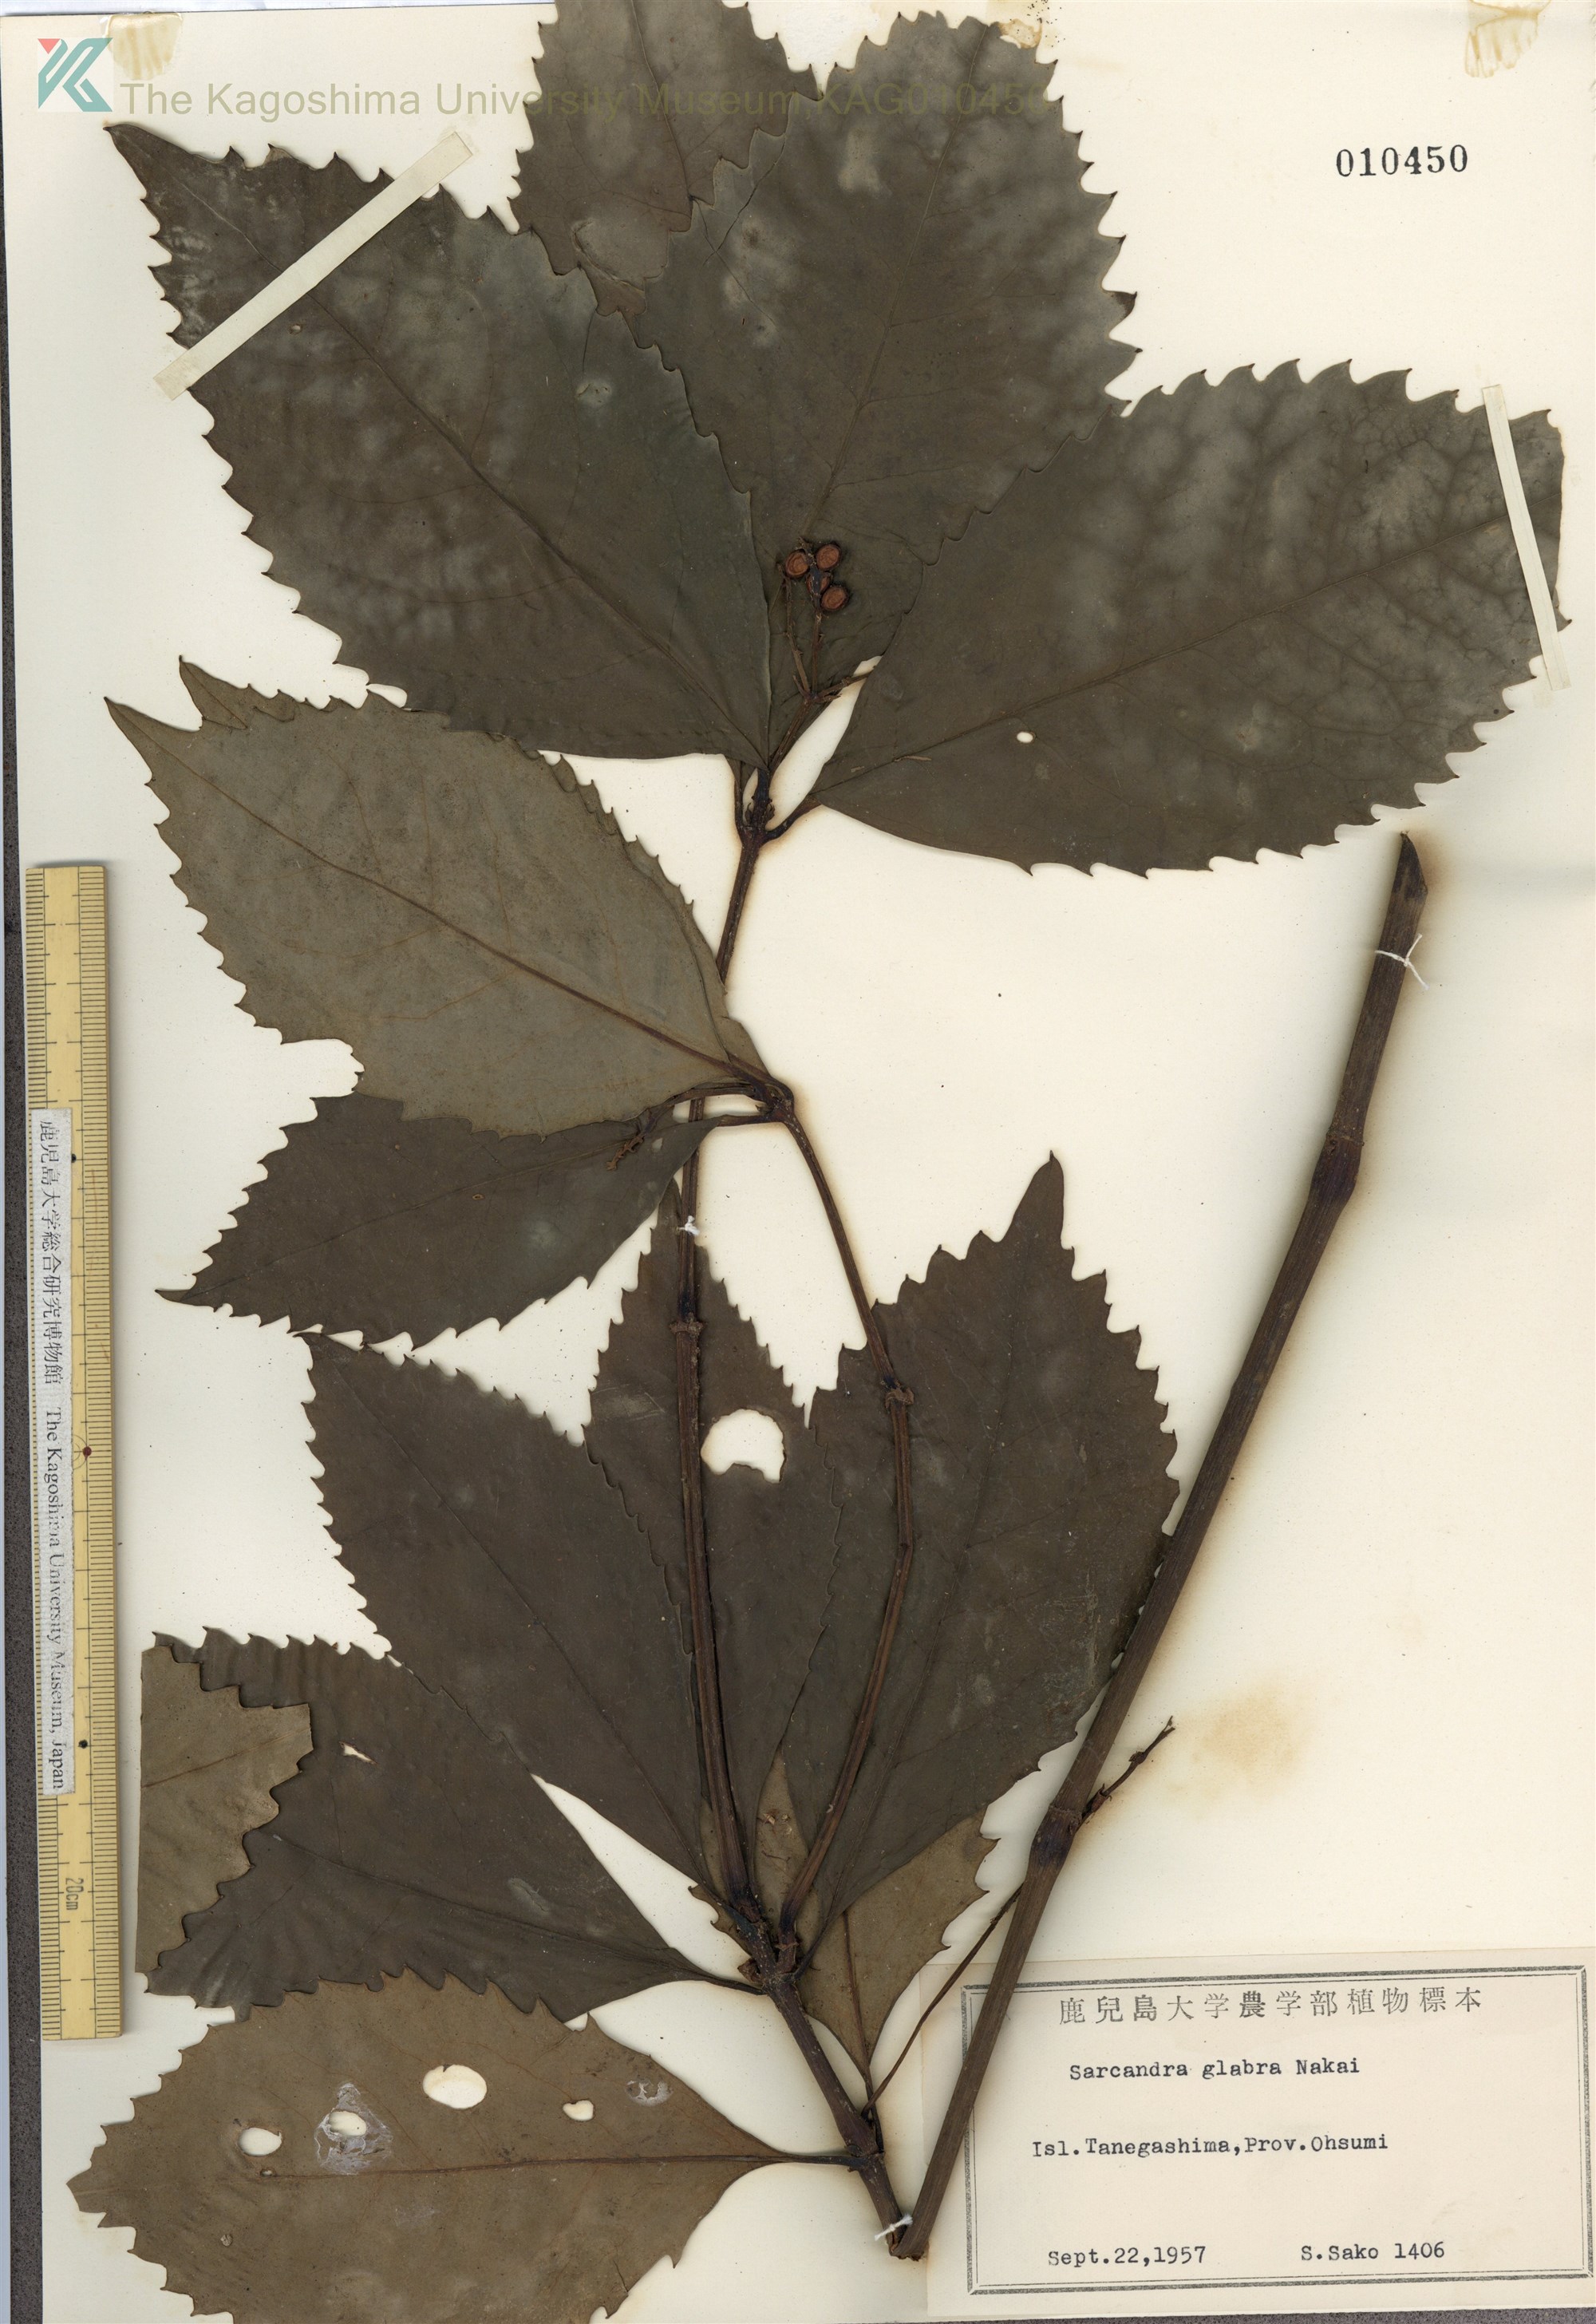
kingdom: Plantae
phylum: Tracheophyta
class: Magnoliopsida
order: Chloranthales
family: Chloranthaceae
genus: Sarcandra
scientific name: Sarcandra glabra
